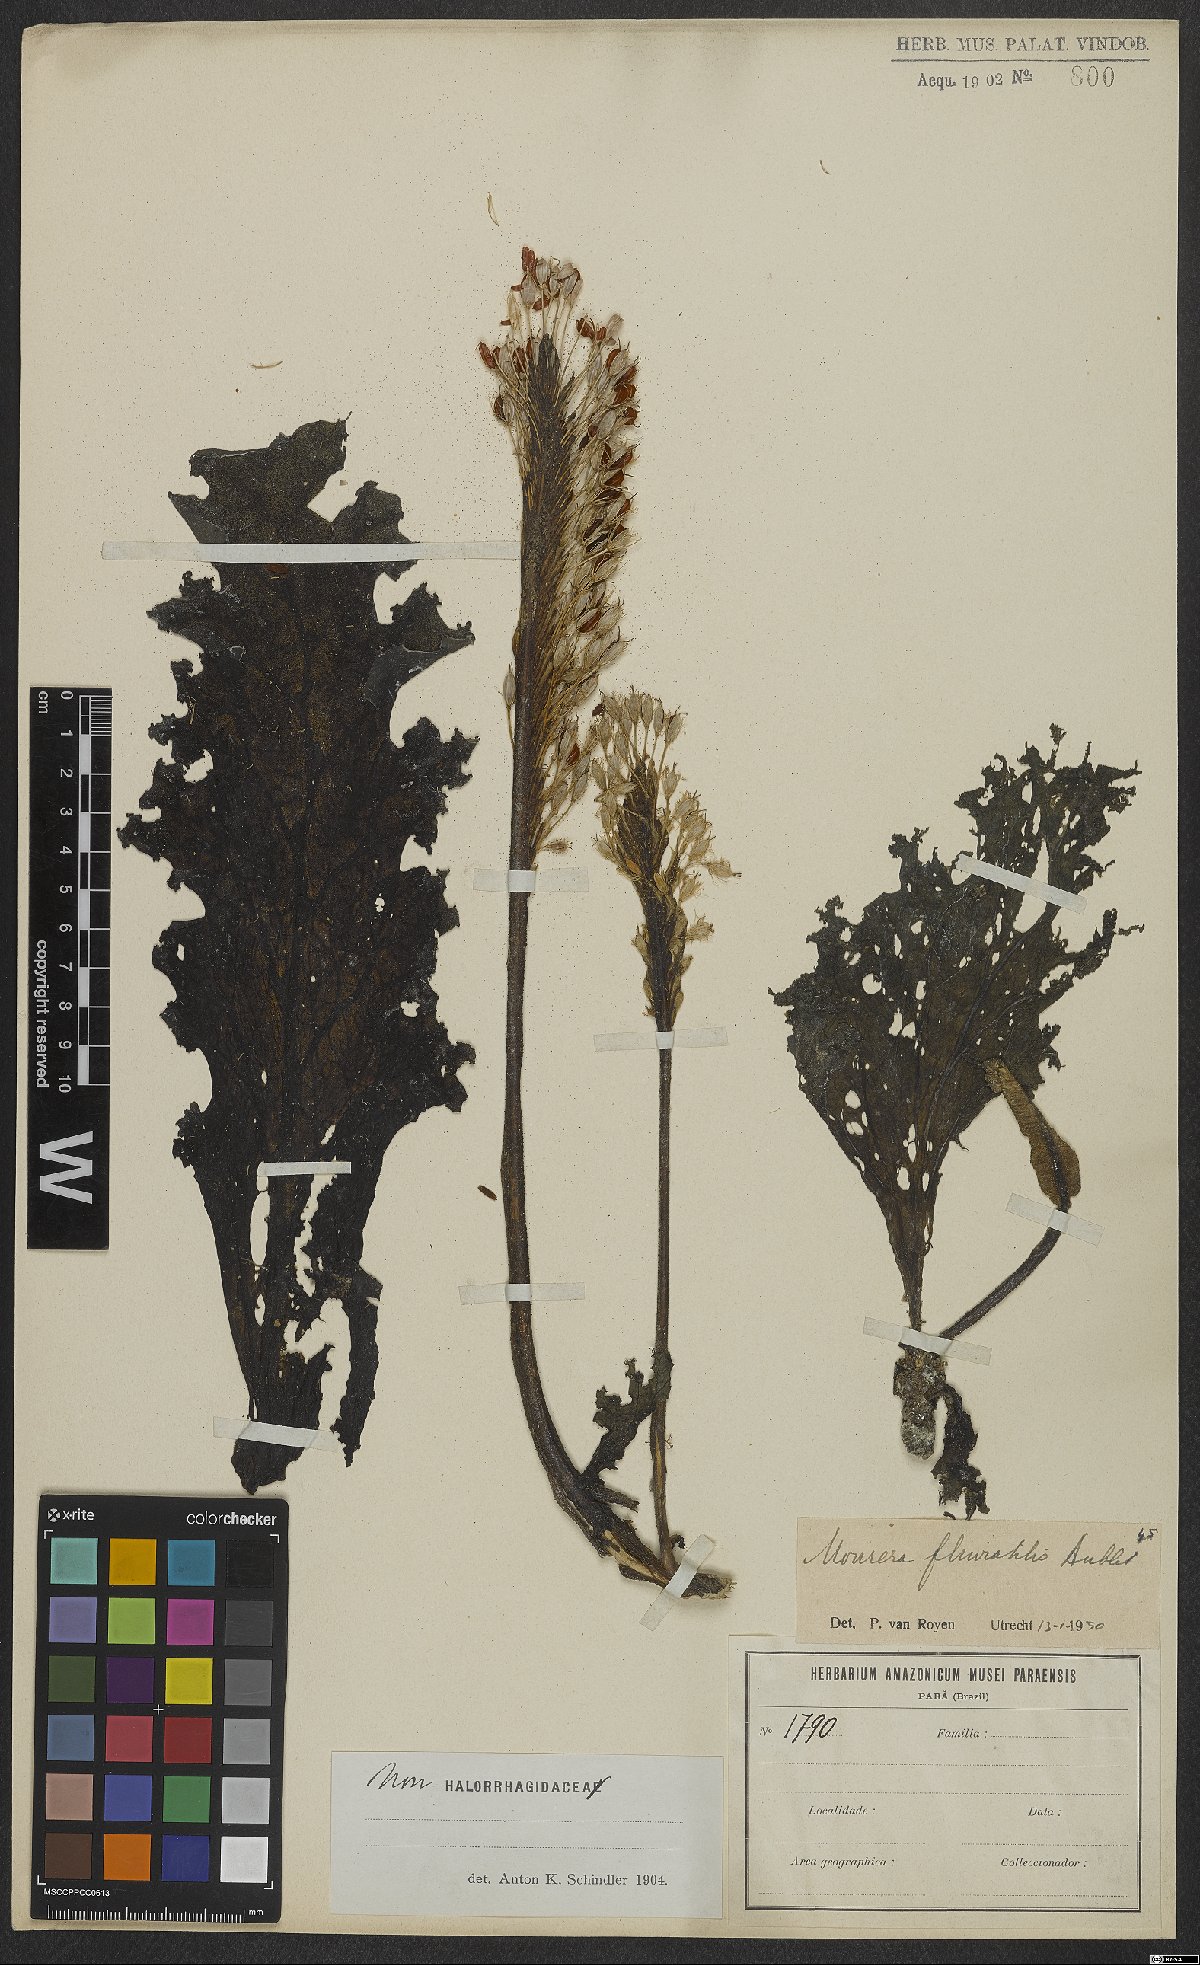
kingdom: Plantae
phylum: Tracheophyta
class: Magnoliopsida
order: Malpighiales
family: Podostemaceae
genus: Mourera
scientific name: Mourera fluviatilis
